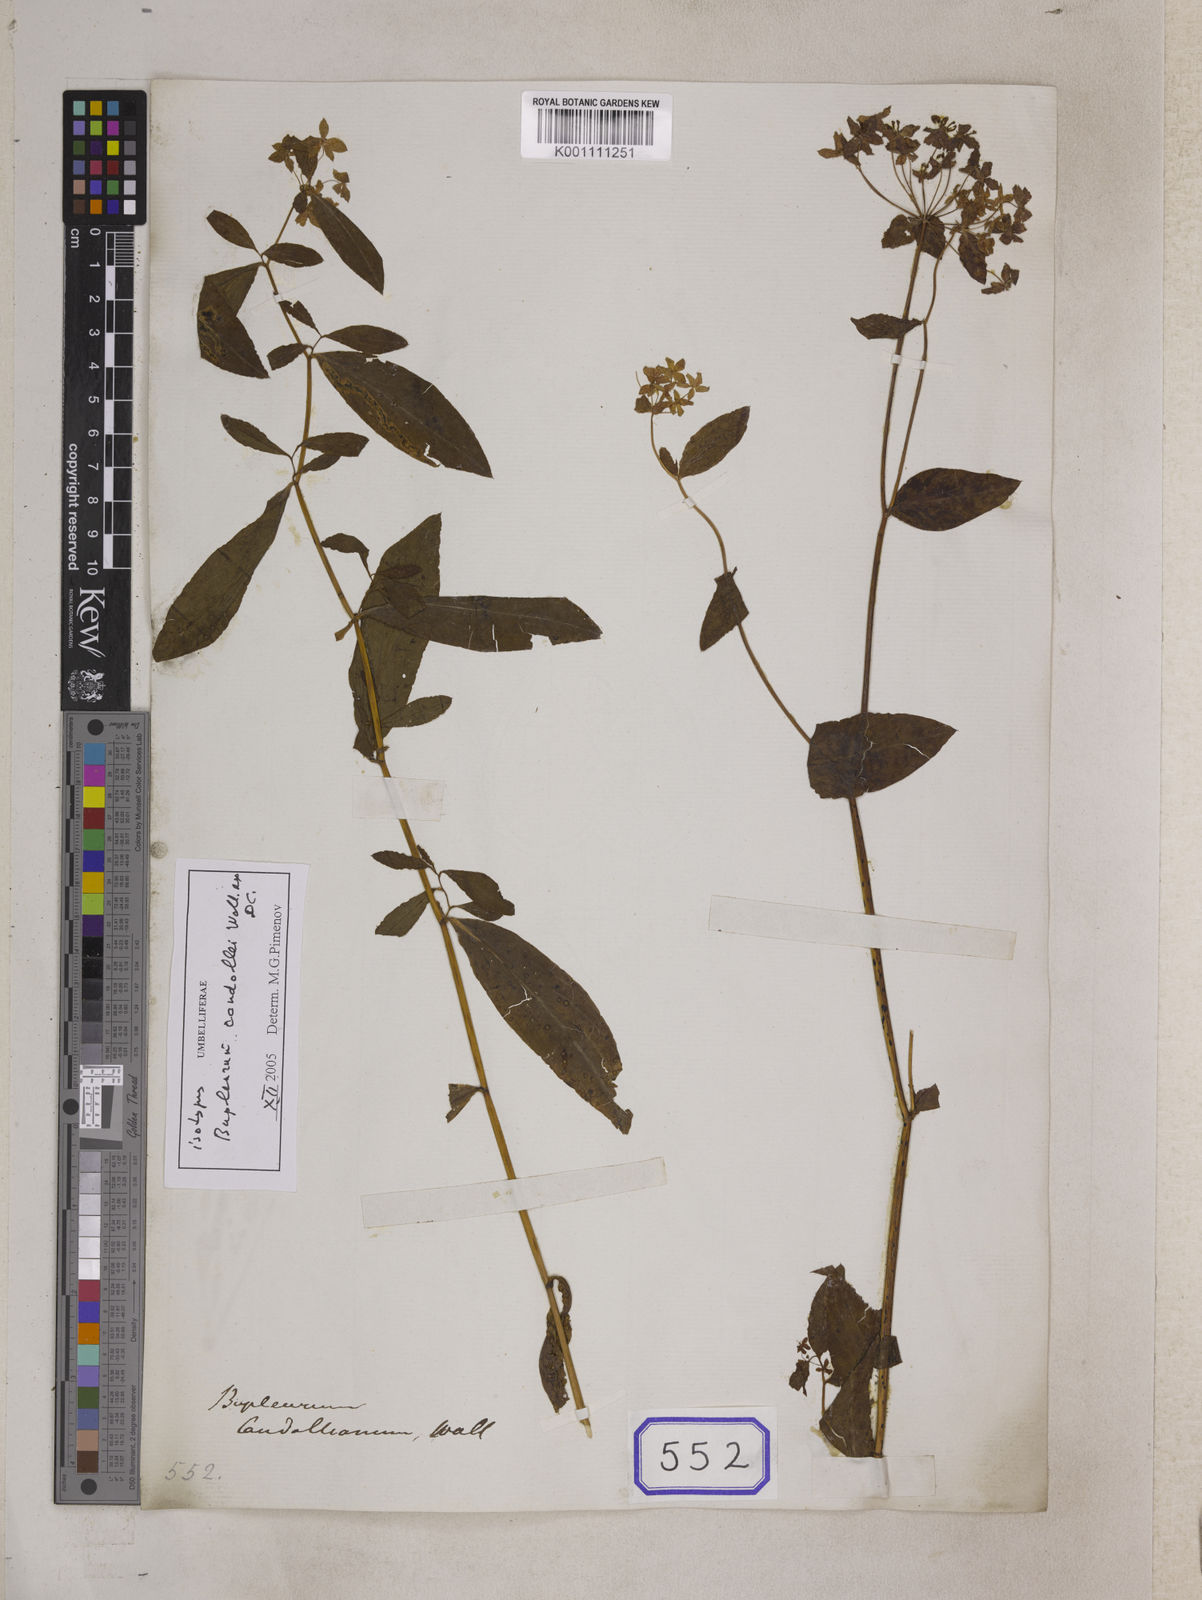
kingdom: Plantae
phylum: Tracheophyta
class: Magnoliopsida
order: Apiales
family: Apiaceae
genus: Bupleurum
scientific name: Bupleurum
